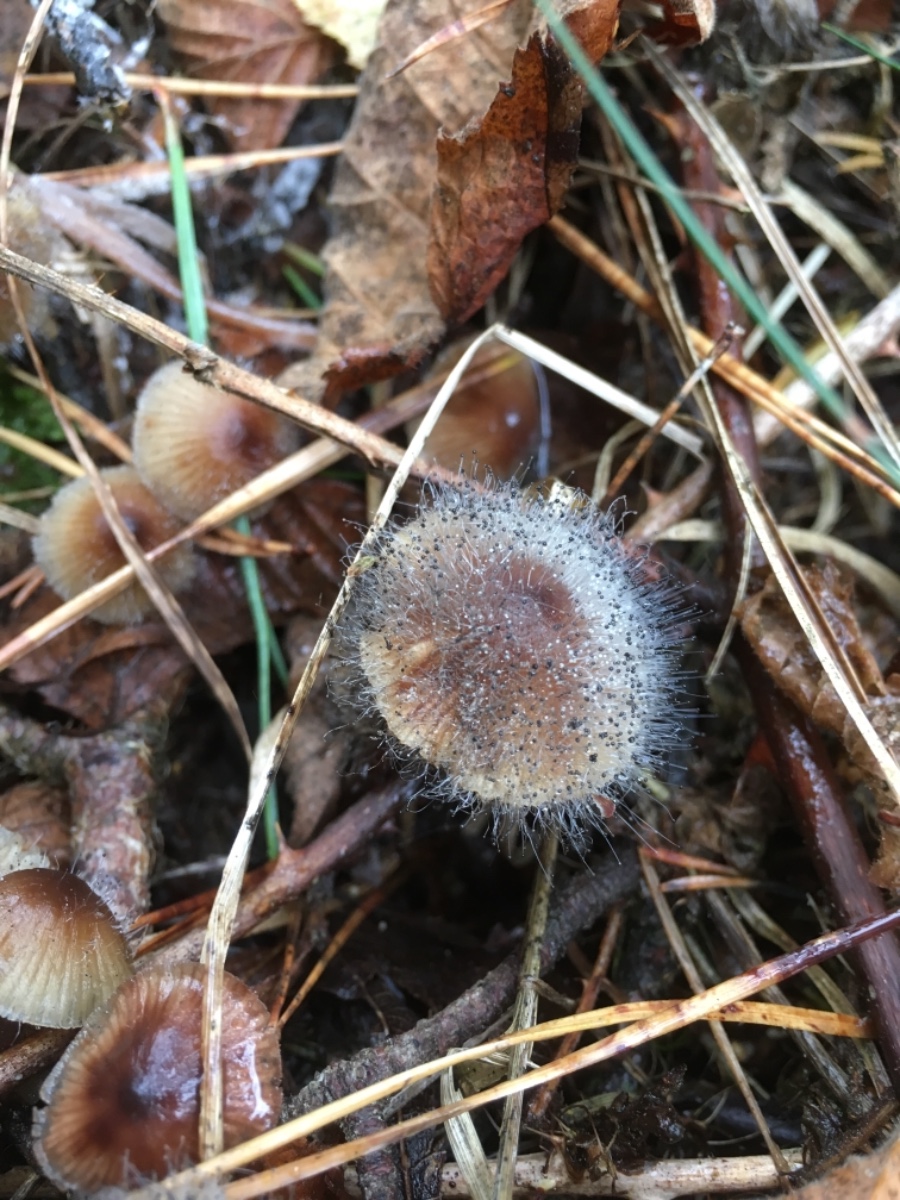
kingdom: Fungi
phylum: Mucoromycota
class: Mucoromycetes
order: Mucorales
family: Phycomycetaceae
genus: Spinellus
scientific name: Spinellus fusiger
